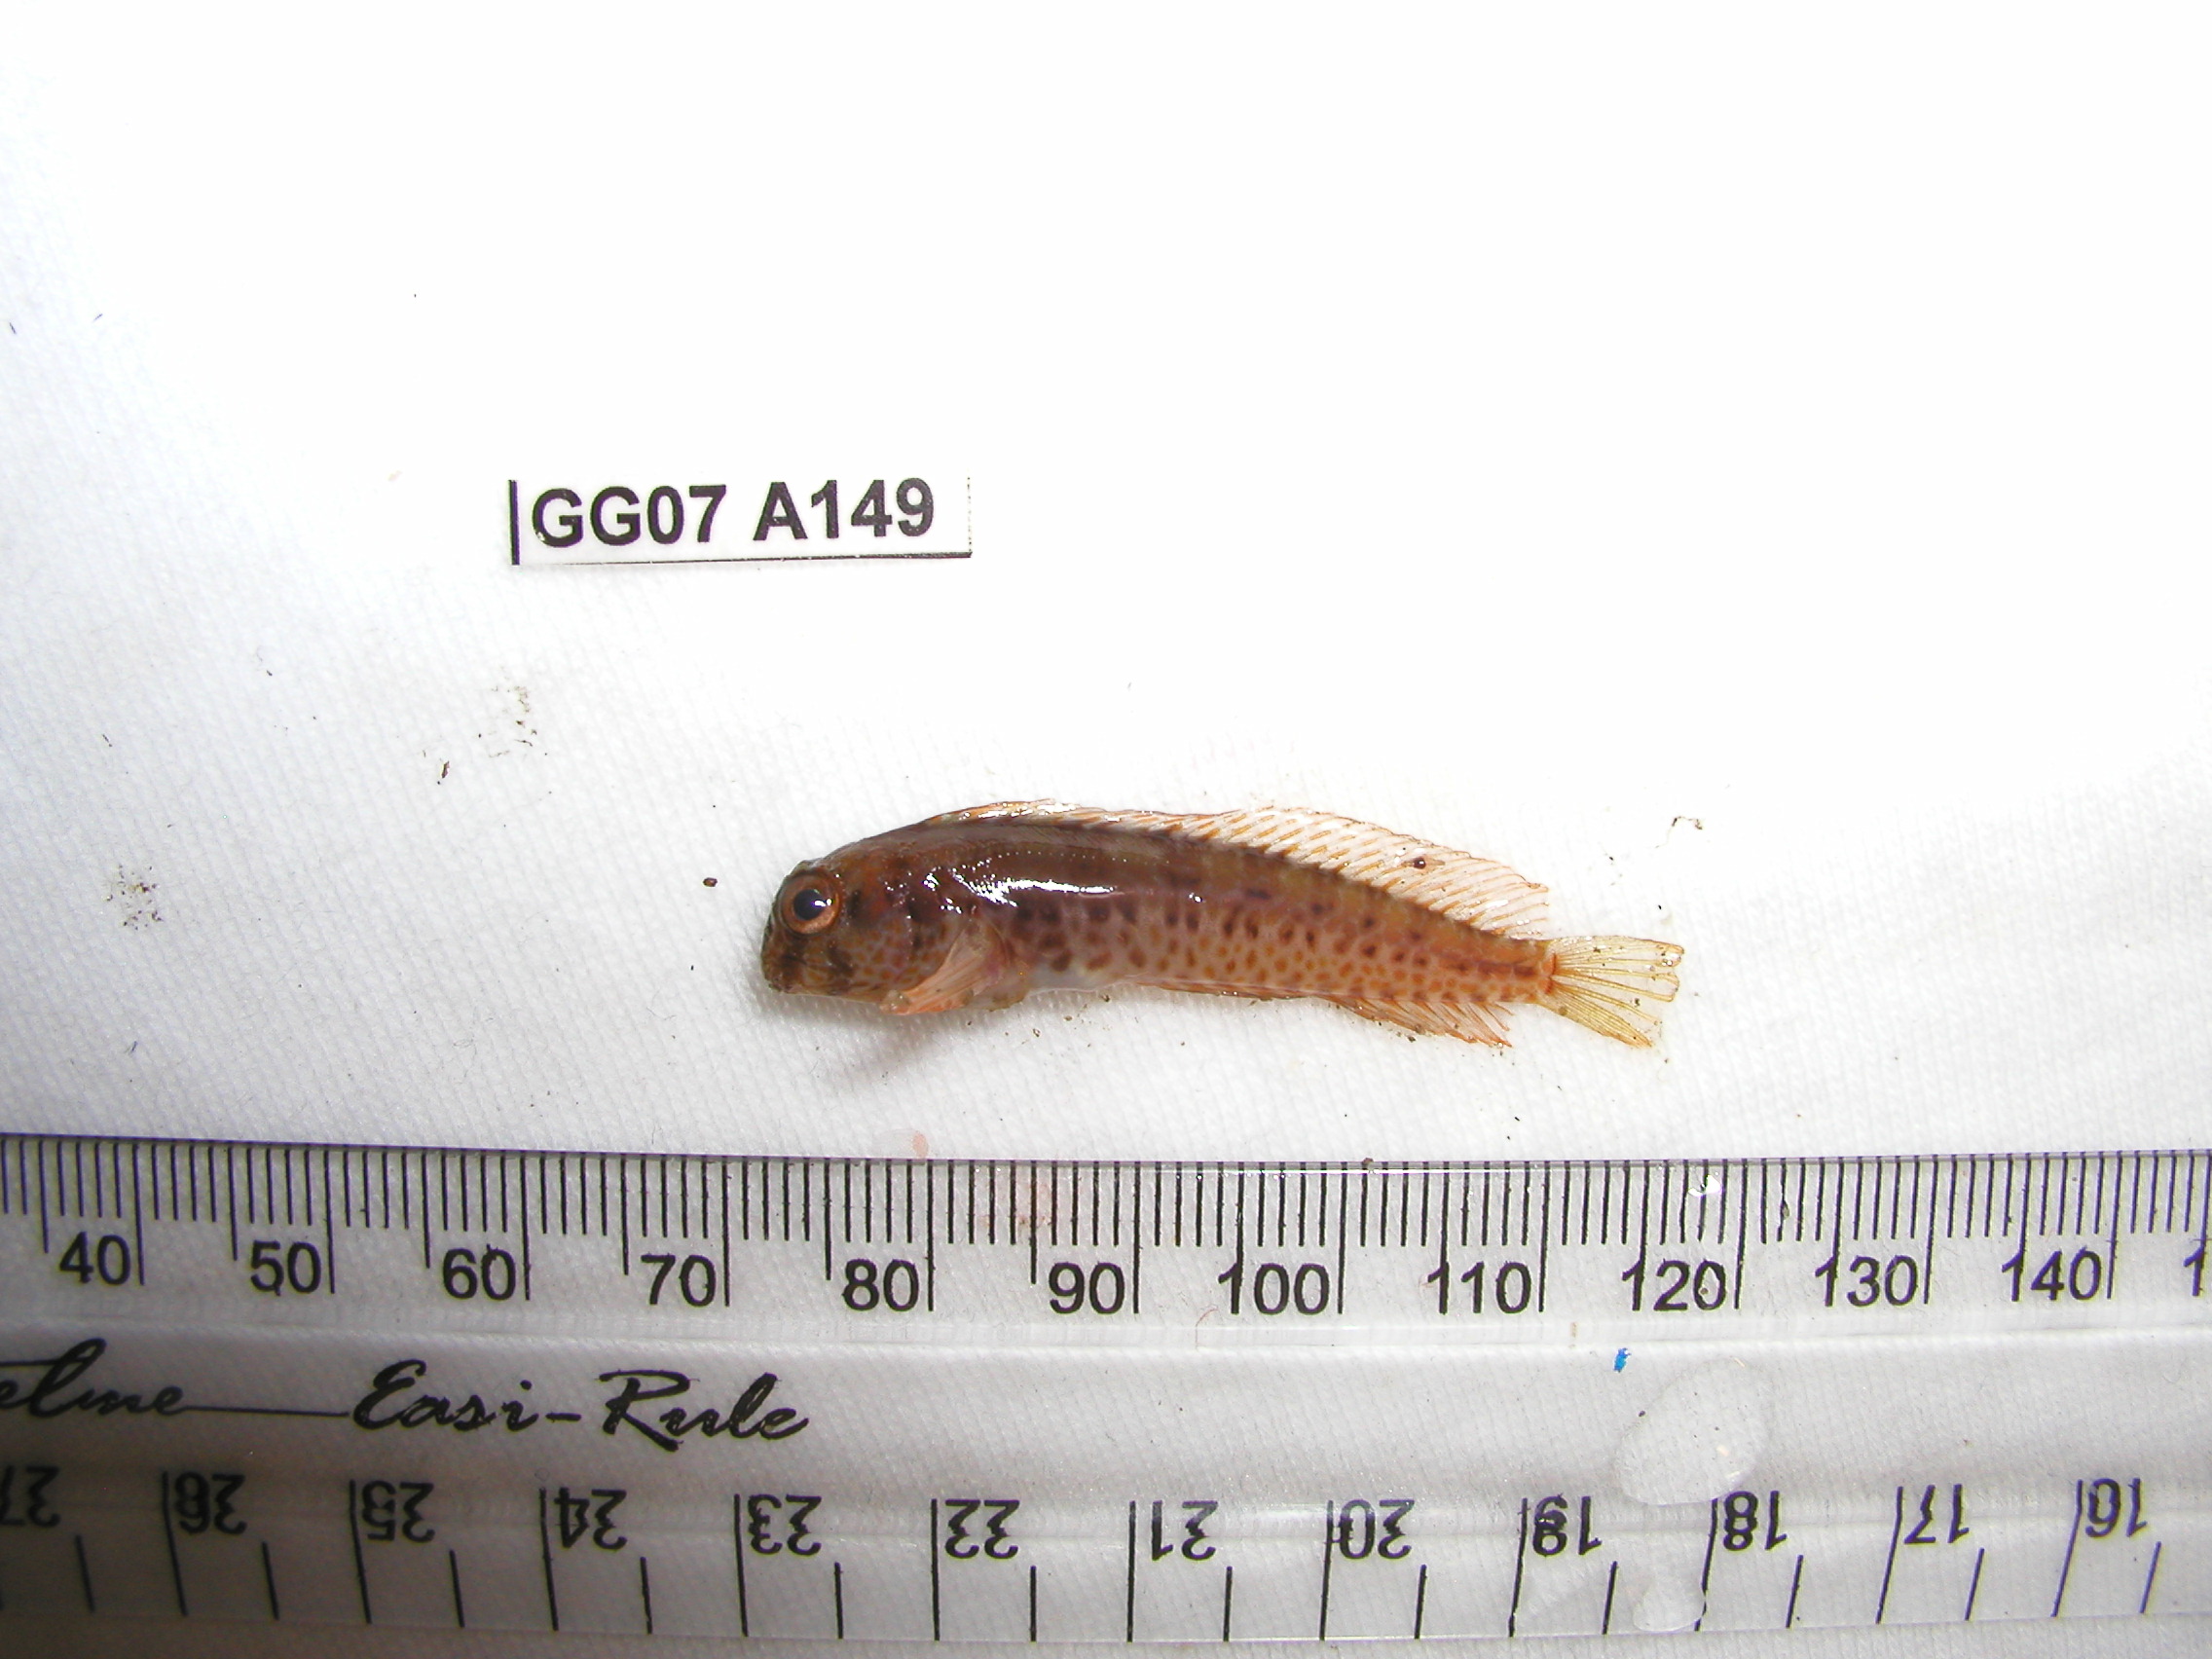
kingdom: Animalia
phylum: Chordata
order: Perciformes
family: Blenniidae
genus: Parablennius
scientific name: Parablennius pilicornis
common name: Ringneck blenny
